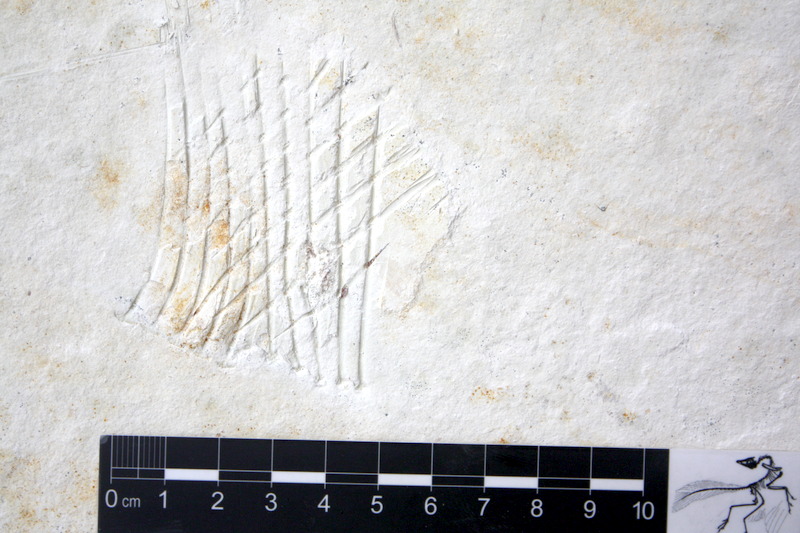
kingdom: Animalia
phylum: Chordata
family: Pycnodontidae
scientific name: Pycnodontidae
